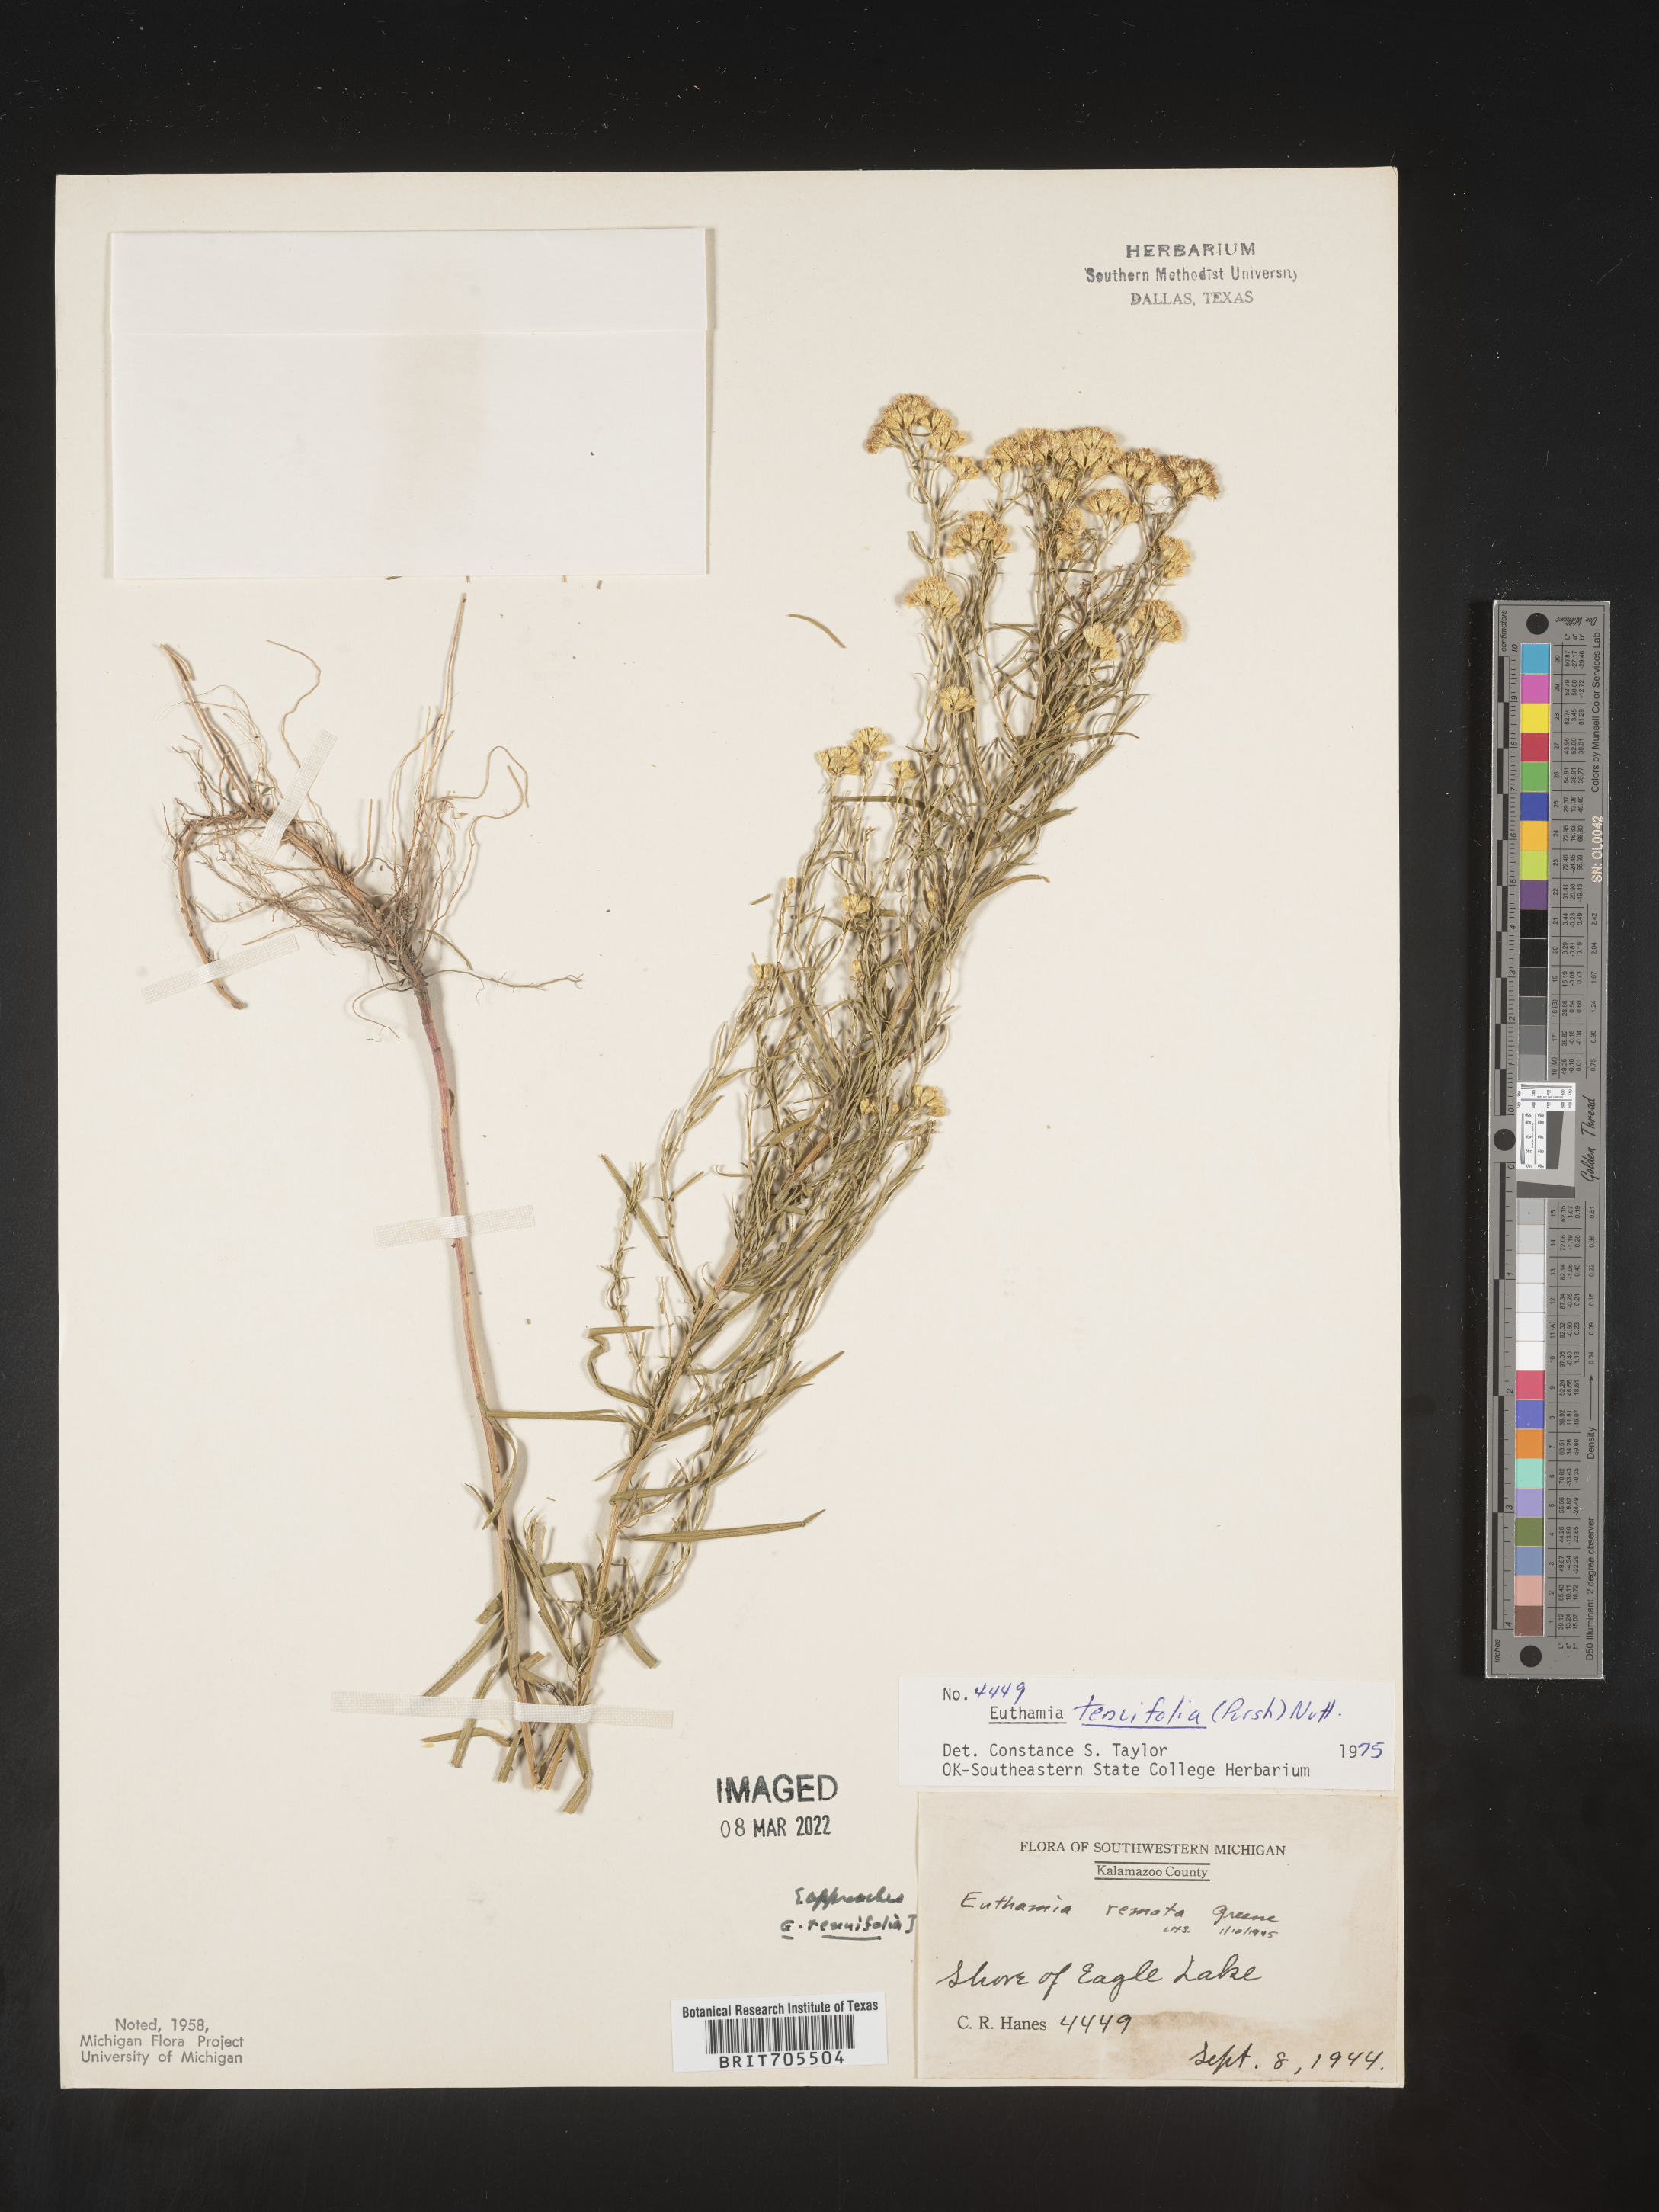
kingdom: Plantae
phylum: Tracheophyta
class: Magnoliopsida
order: Asterales
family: Asteraceae
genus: Euthamia
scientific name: Euthamia caroliniana
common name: Coastal plain goldentop
